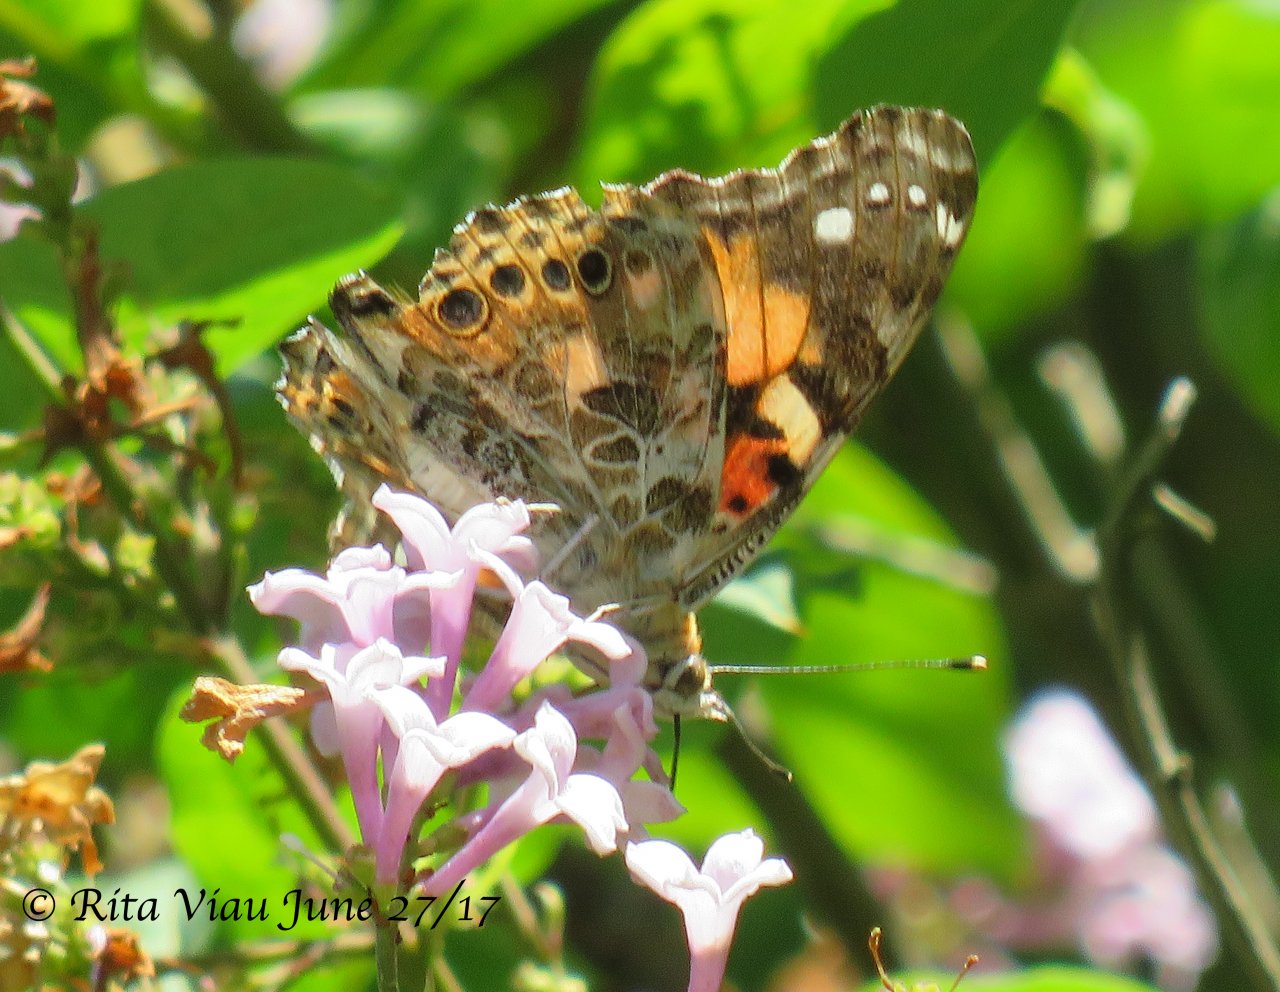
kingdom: Animalia
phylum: Arthropoda
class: Insecta
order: Lepidoptera
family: Nymphalidae
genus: Vanessa
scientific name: Vanessa cardui
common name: Painted Lady
